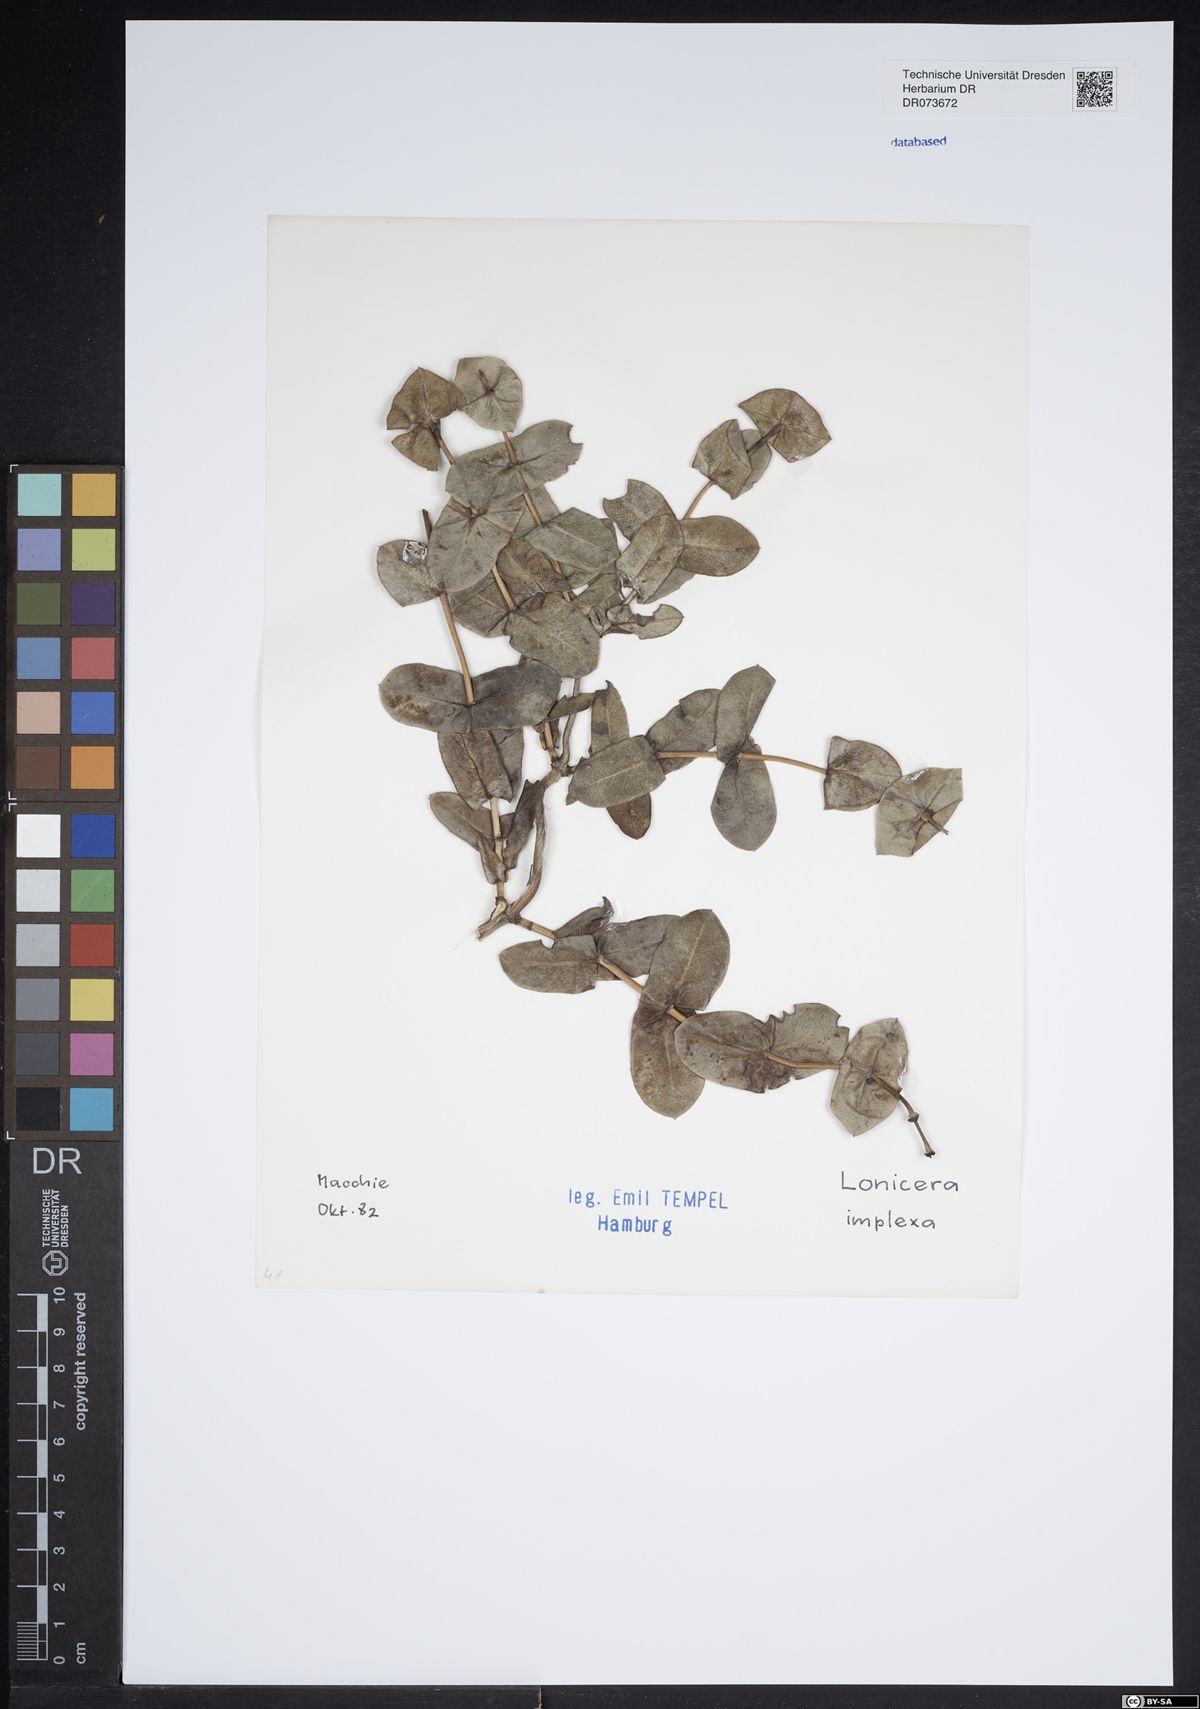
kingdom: Plantae
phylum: Tracheophyta
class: Magnoliopsida
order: Dipsacales
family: Caprifoliaceae
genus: Lonicera
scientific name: Lonicera implexa
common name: Minorca honeysuckle
